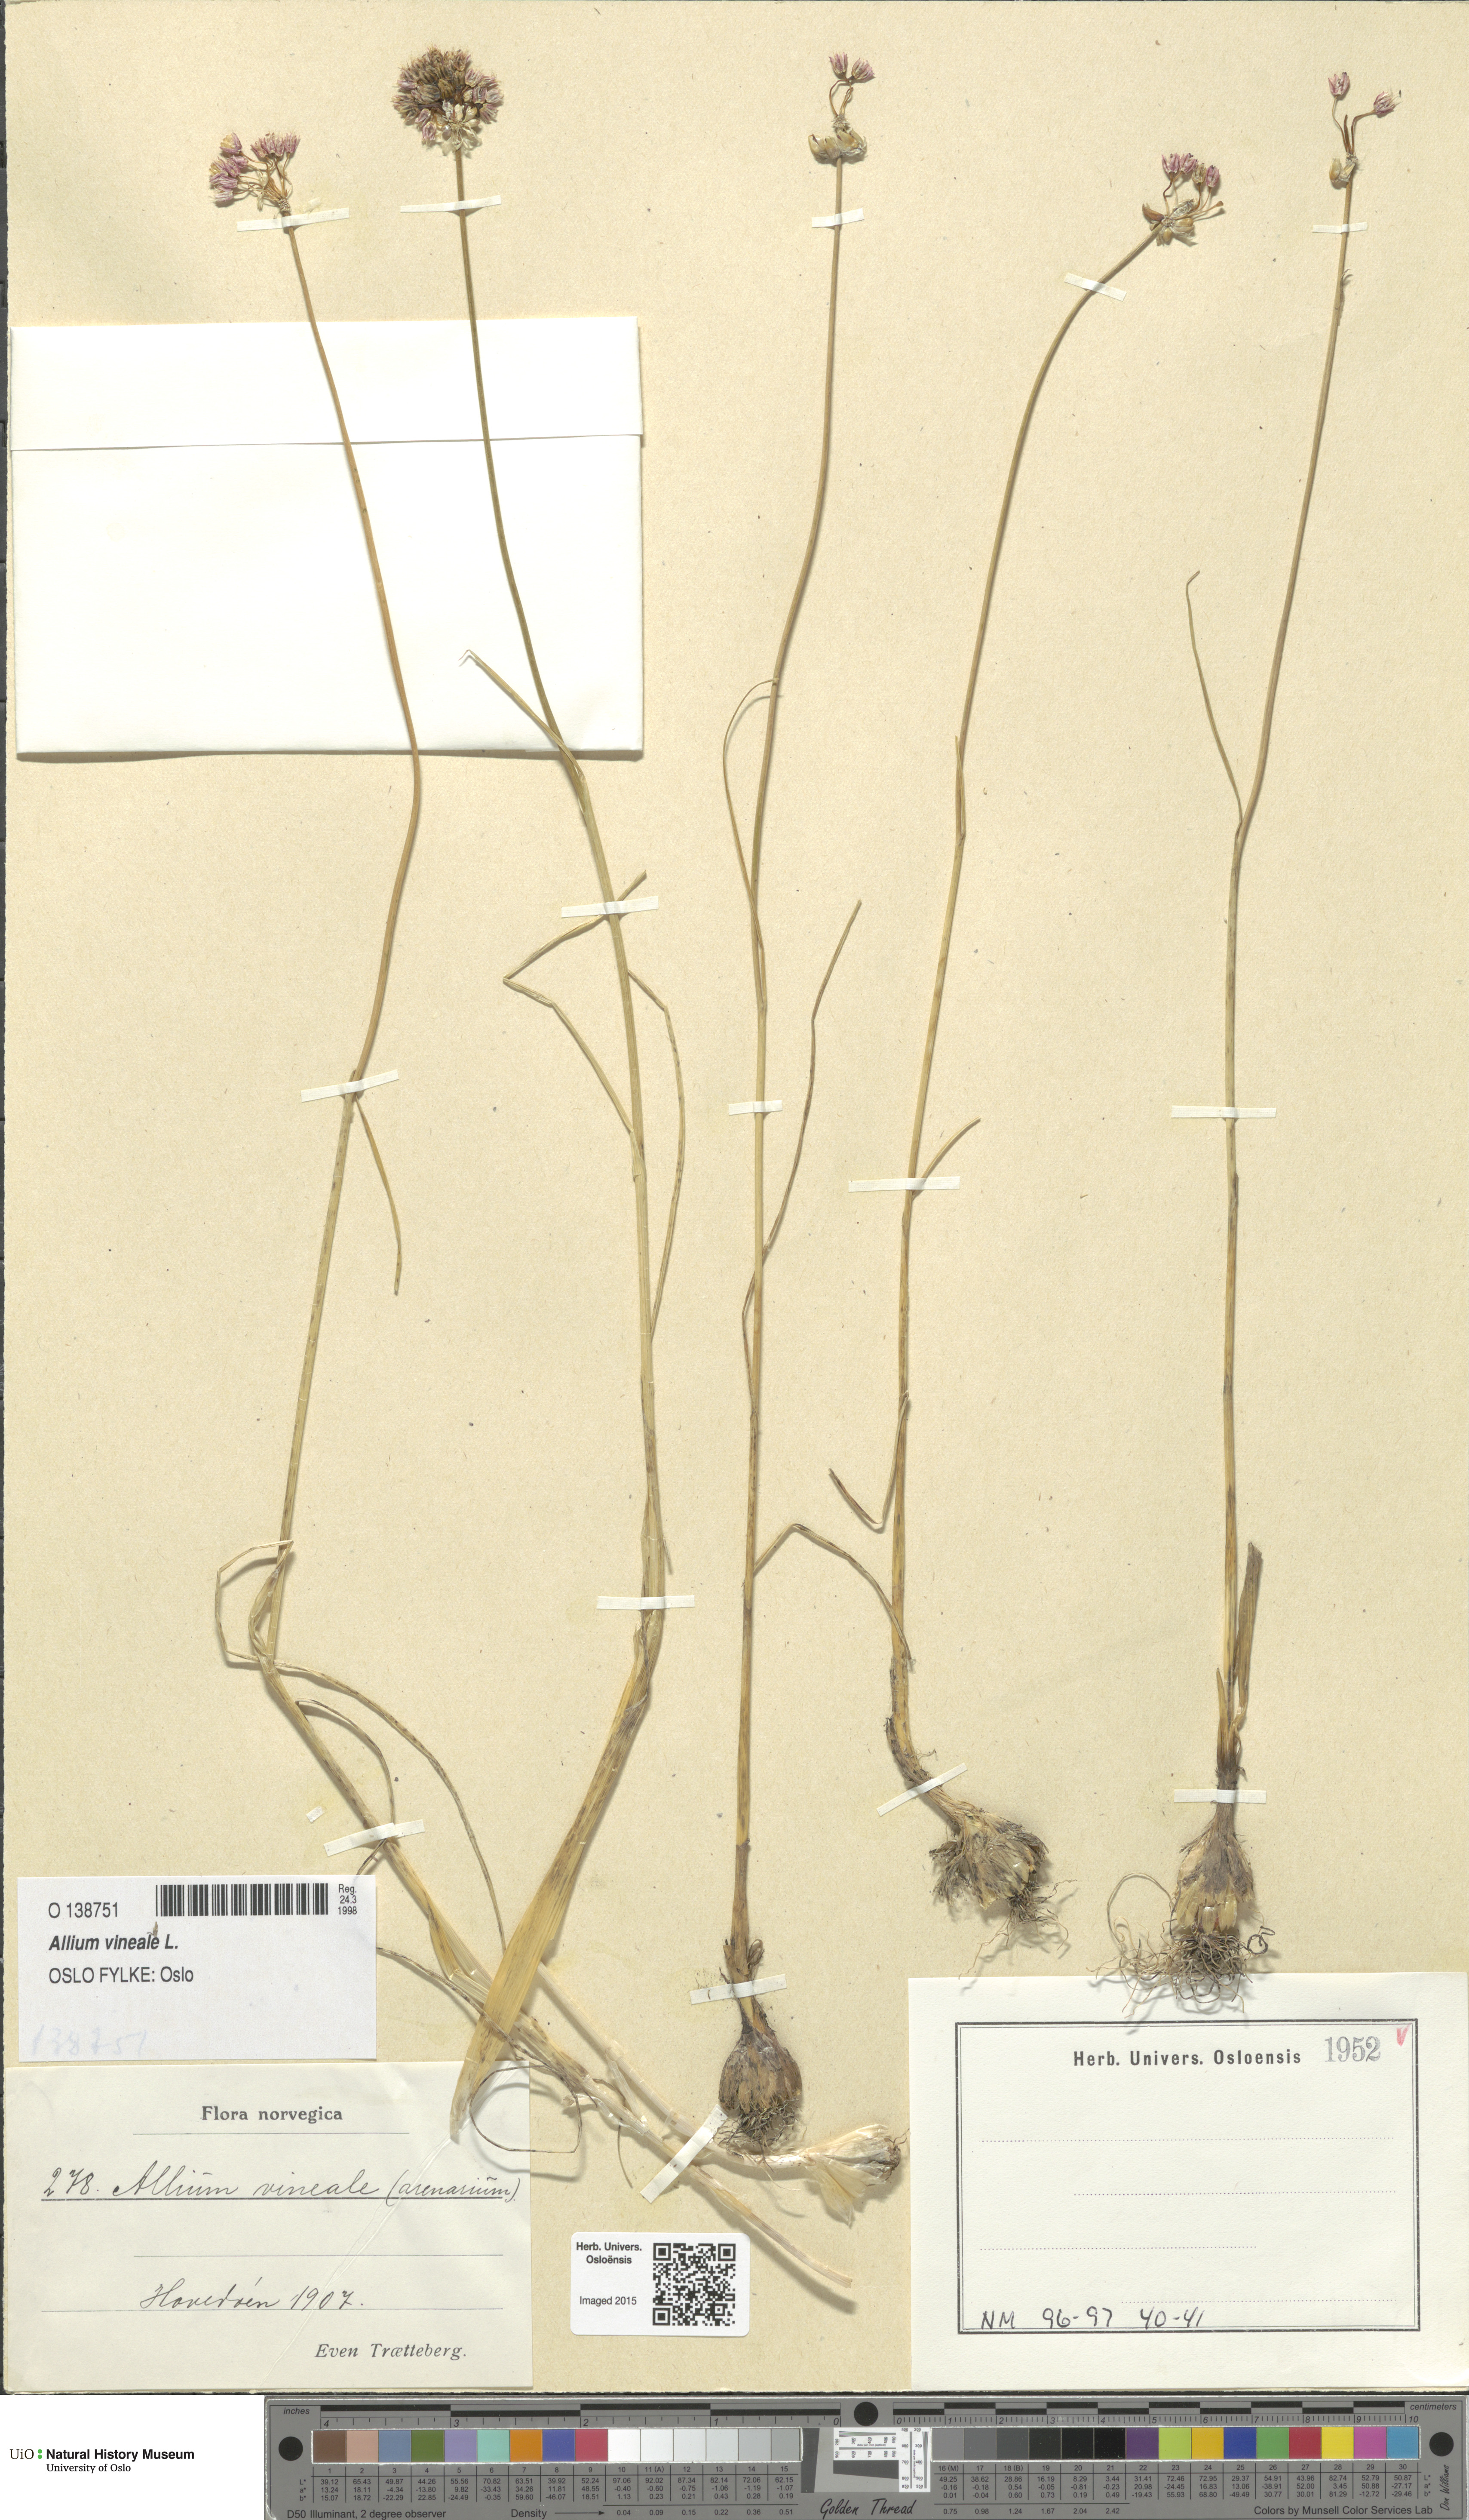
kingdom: Plantae
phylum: Tracheophyta
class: Liliopsida
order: Asparagales
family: Amaryllidaceae
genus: Allium
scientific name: Allium vineale
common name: Crow garlic
